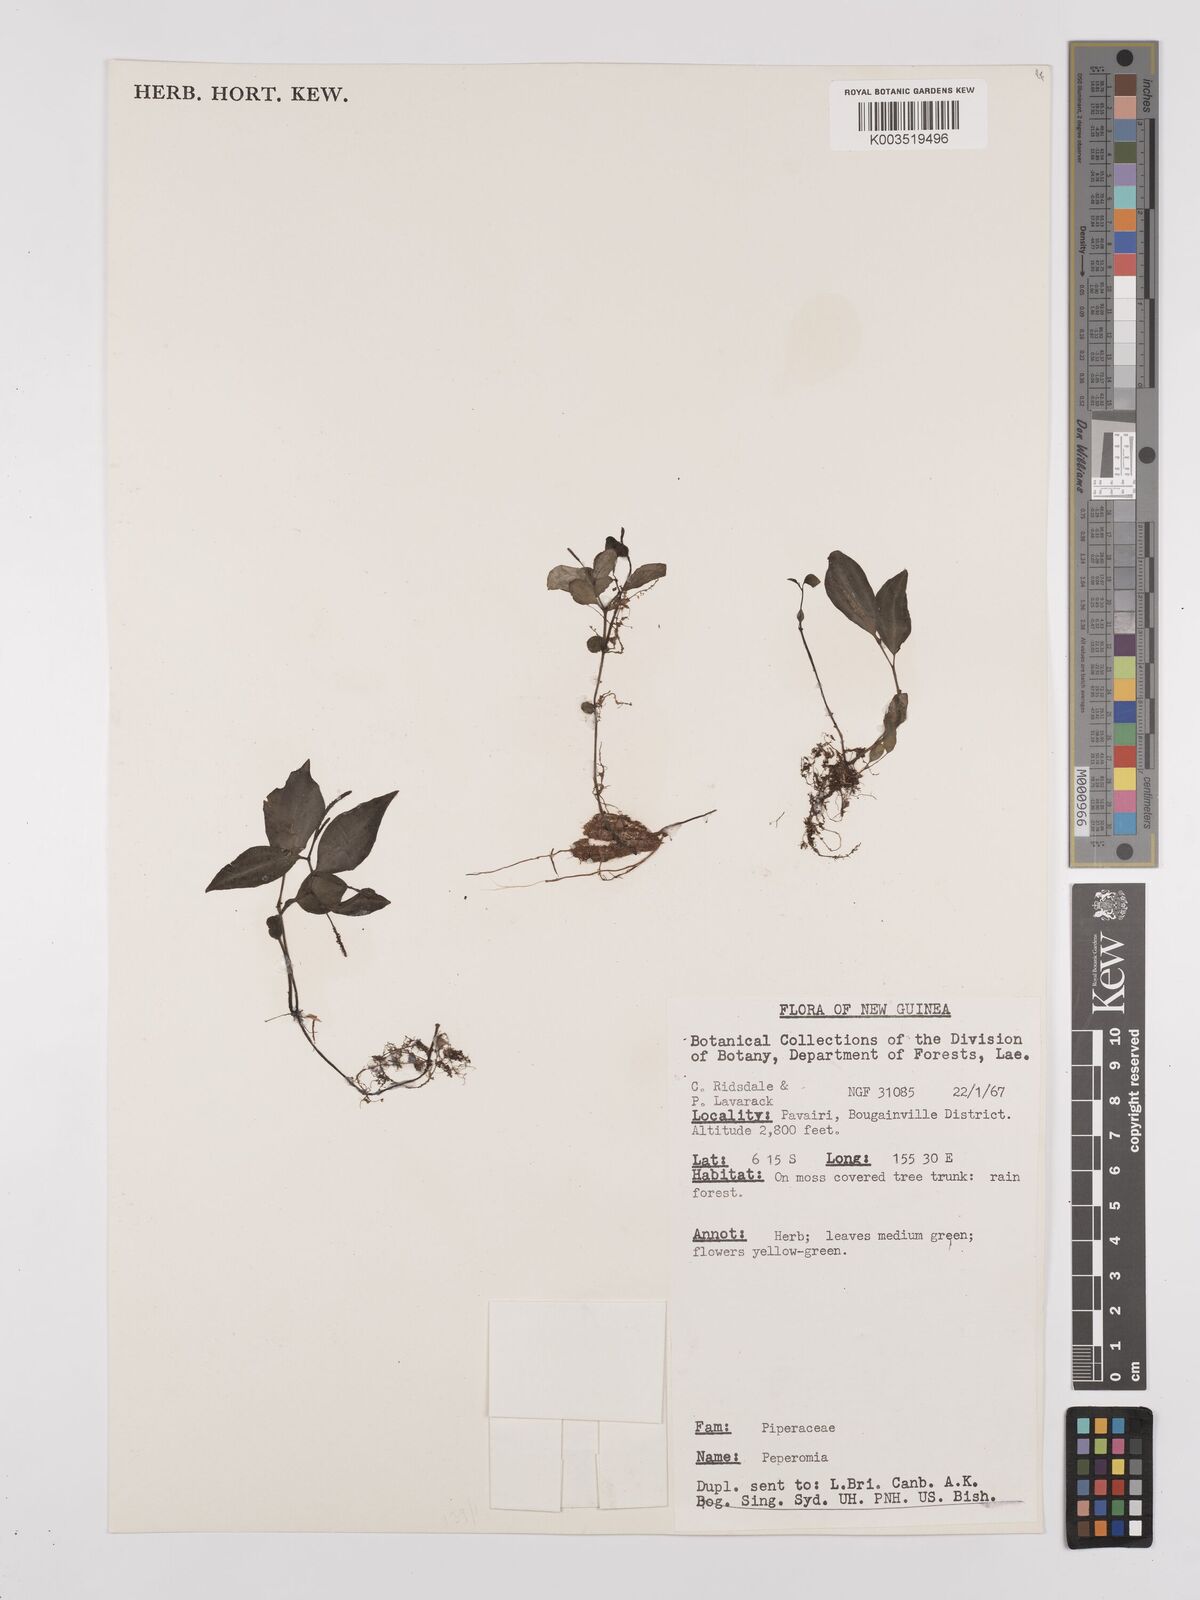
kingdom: Plantae
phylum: Tracheophyta
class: Magnoliopsida
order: Piperales
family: Piperaceae
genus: Peperomia
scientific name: Peperomia
